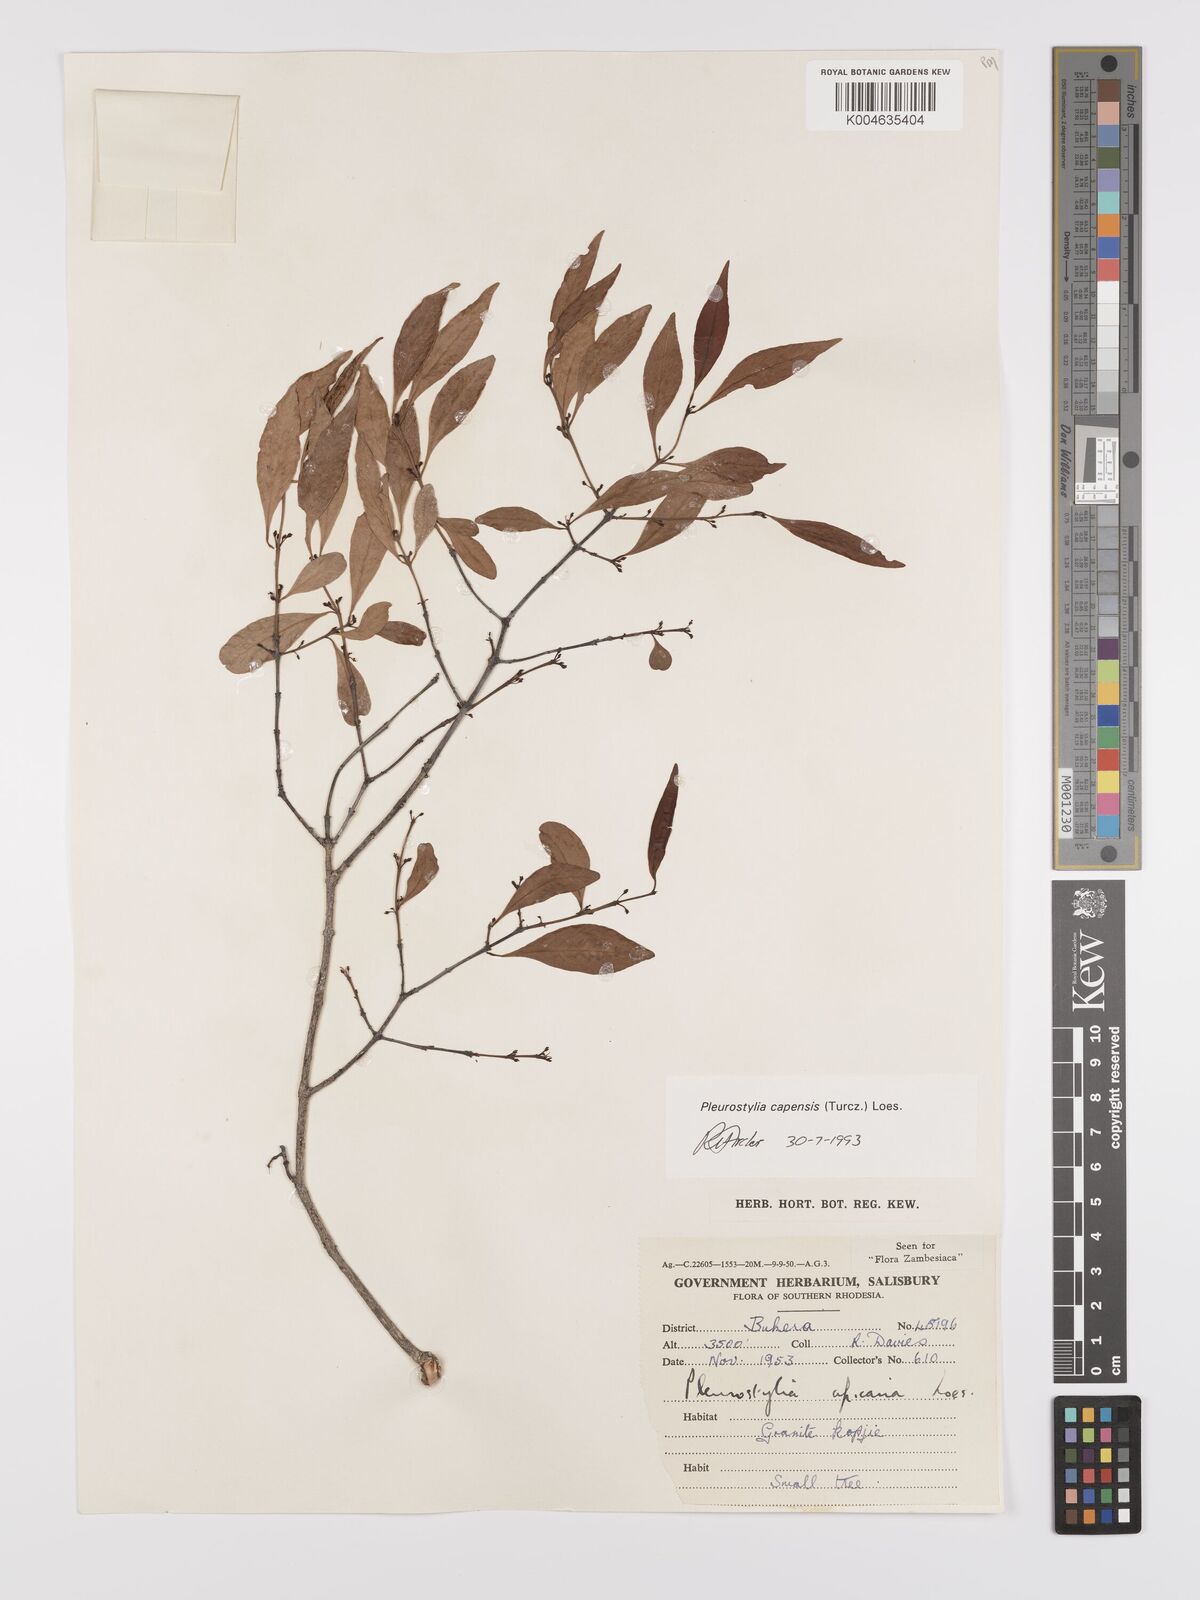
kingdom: Plantae
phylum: Tracheophyta
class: Magnoliopsida
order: Celastrales
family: Celastraceae
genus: Pleurostylia
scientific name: Pleurostylia africana
